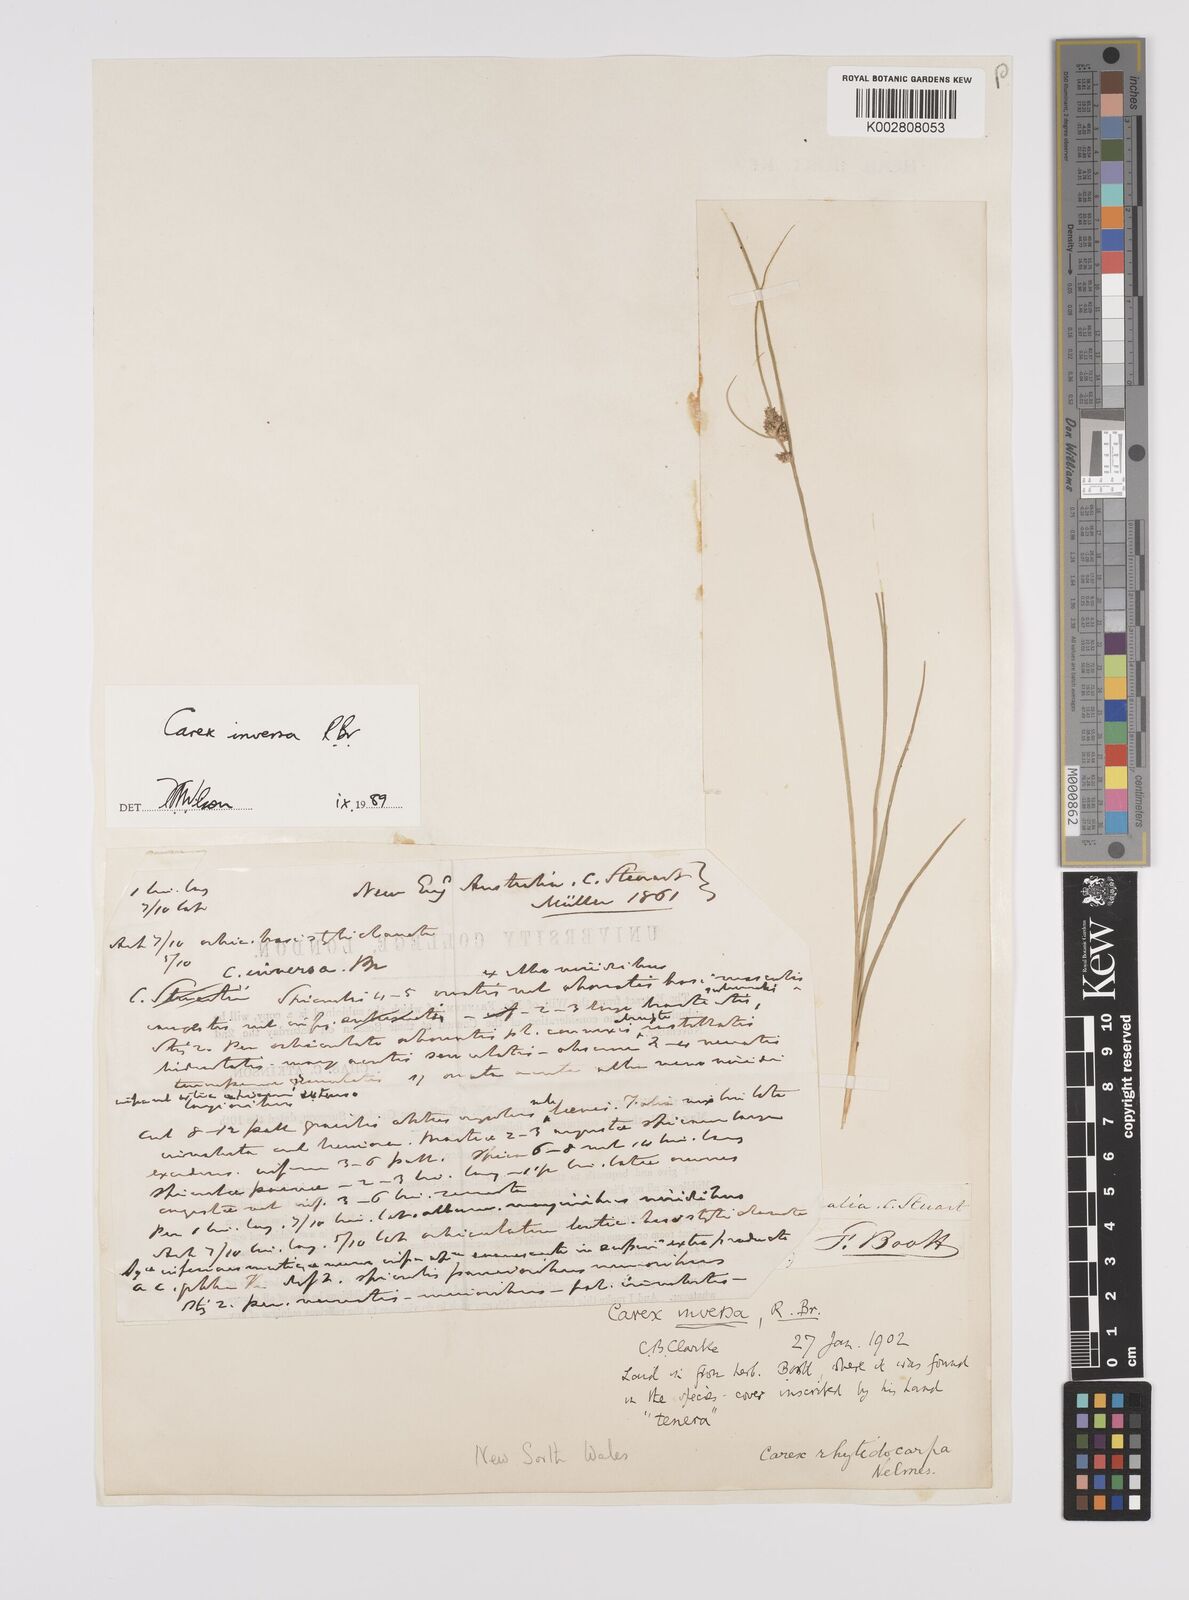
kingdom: Plantae
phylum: Tracheophyta
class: Liliopsida
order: Poales
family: Cyperaceae
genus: Carex
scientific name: Carex inversa
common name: Knob sedge
